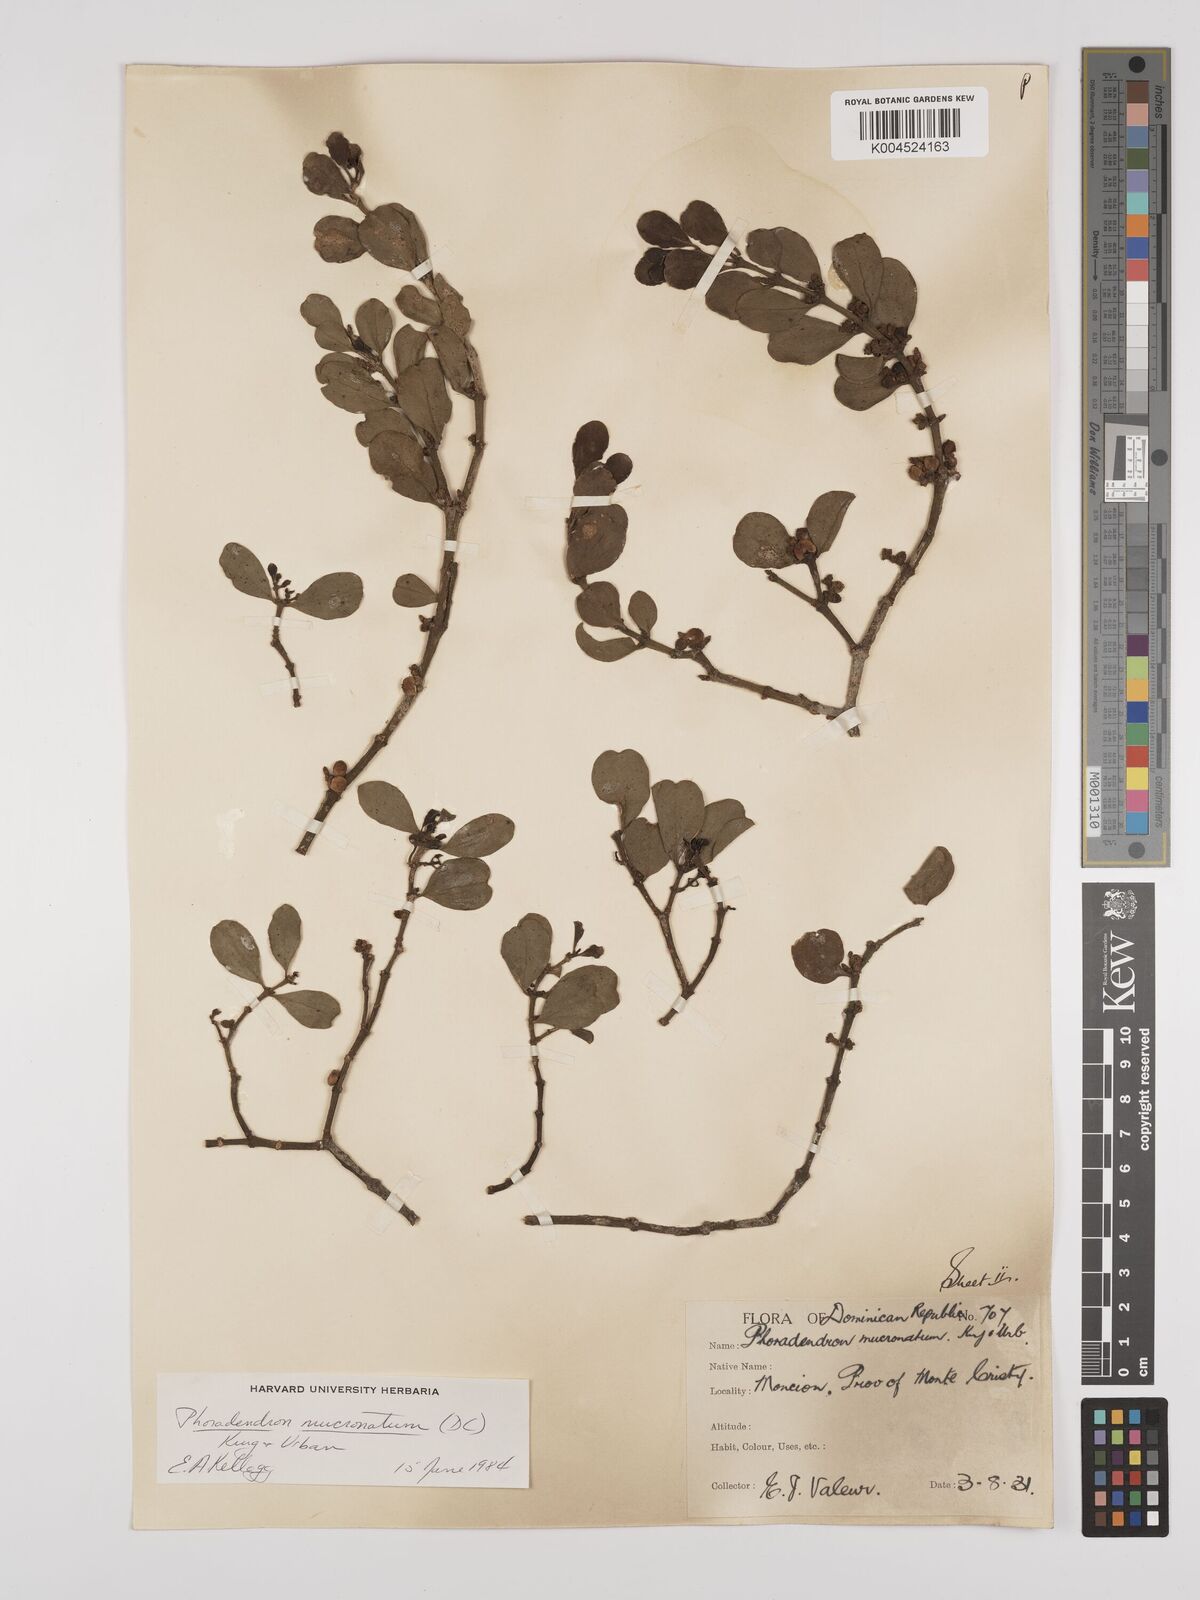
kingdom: Plantae
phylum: Tracheophyta
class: Magnoliopsida
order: Santalales
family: Viscaceae
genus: Phoradendron
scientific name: Phoradendron mucronatum
